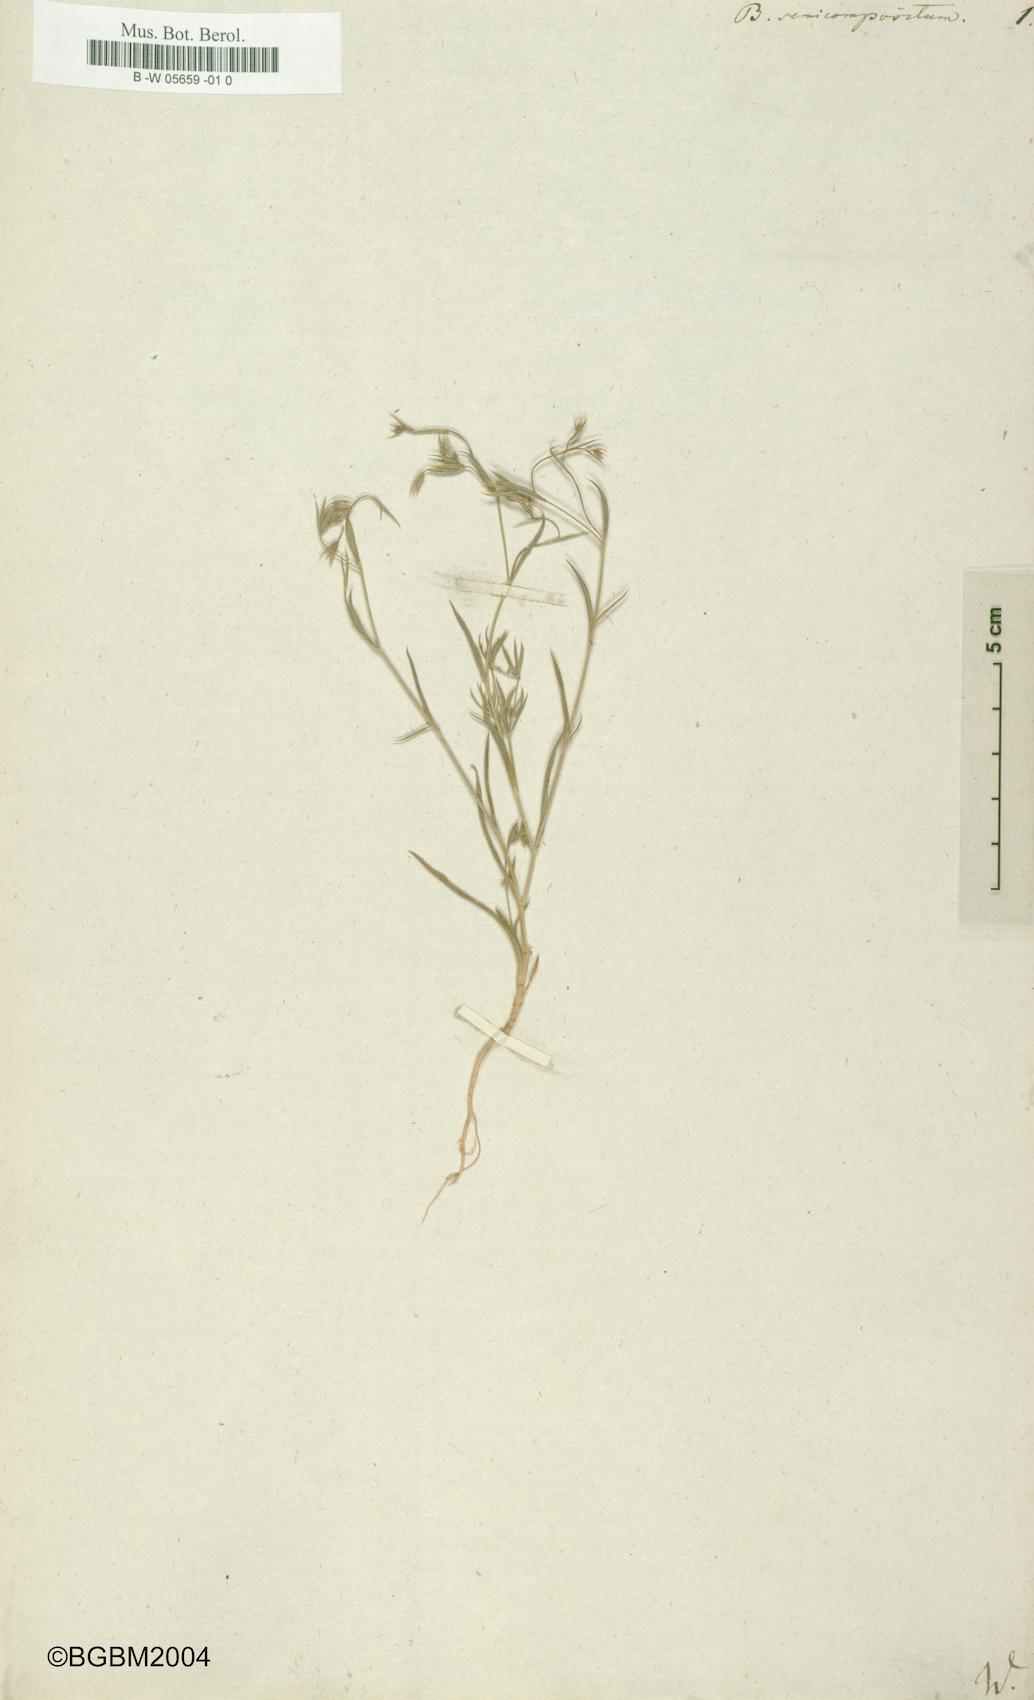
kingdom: Plantae
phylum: Tracheophyta
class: Magnoliopsida
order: Apiales
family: Apiaceae
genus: Bupleurum
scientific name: Bupleurum semicompositum
